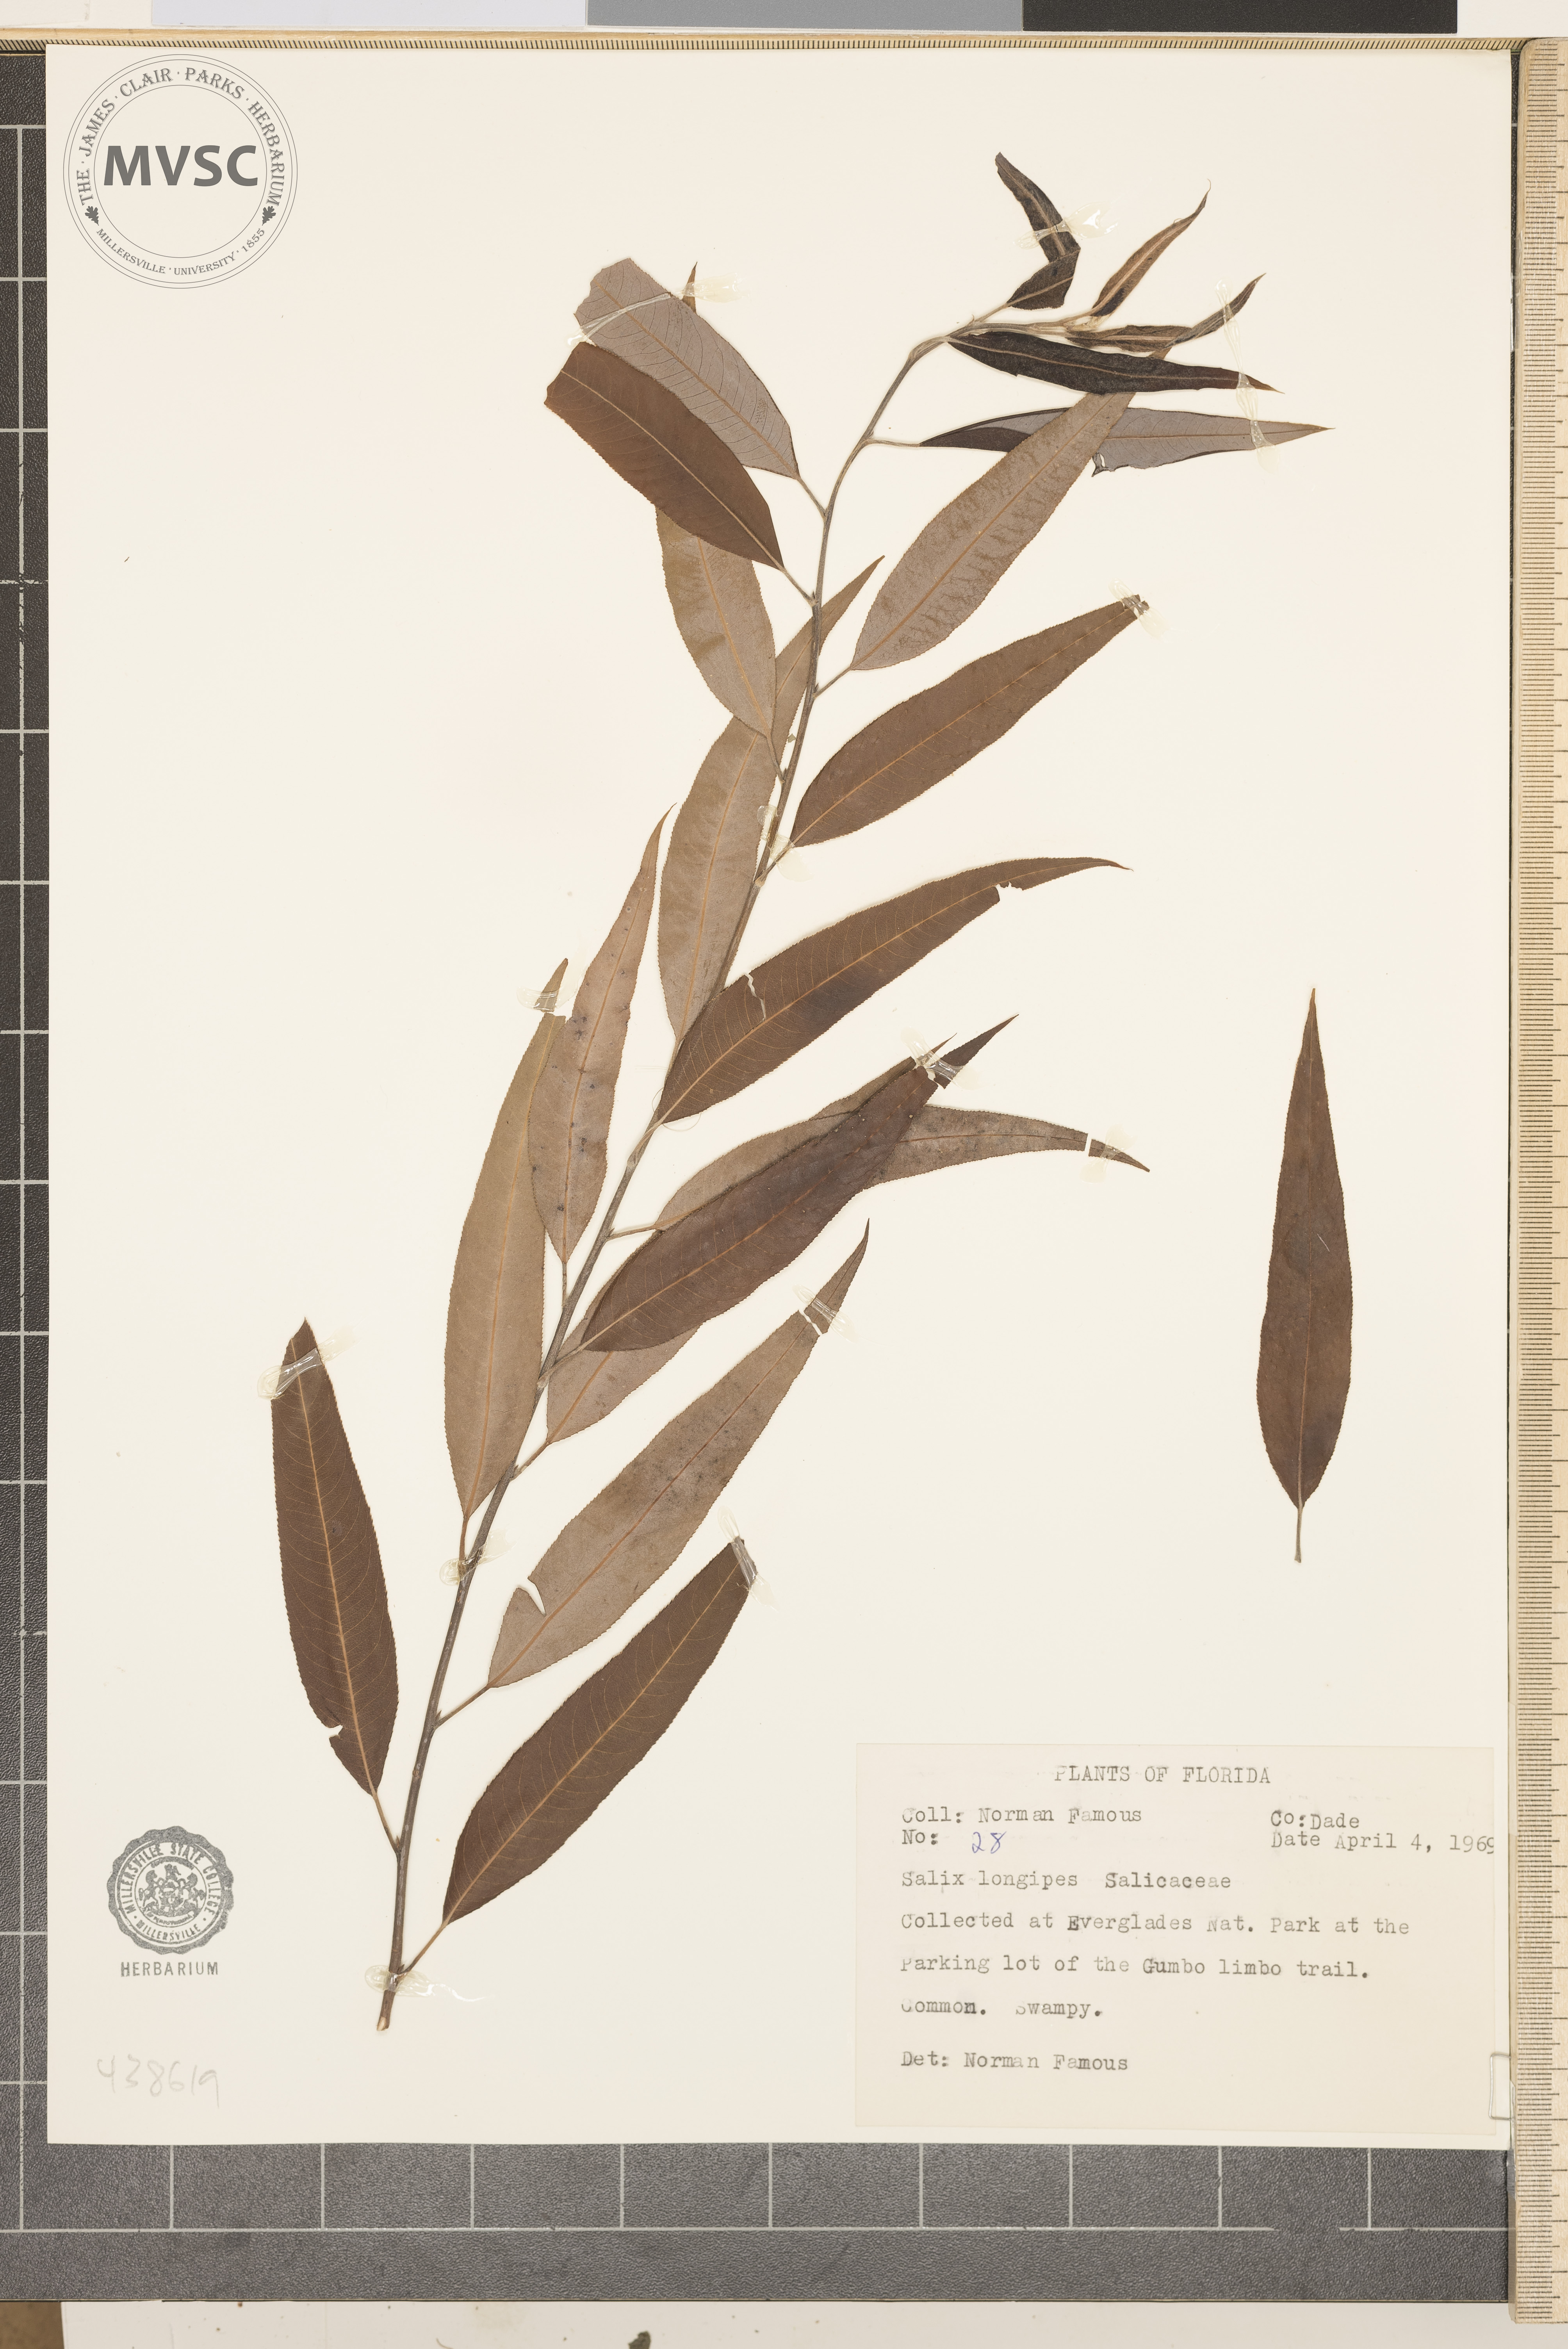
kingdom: Plantae
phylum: Tracheophyta
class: Magnoliopsida
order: Malpighiales
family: Salicaceae
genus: Salix
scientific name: Salix fruticulosa
